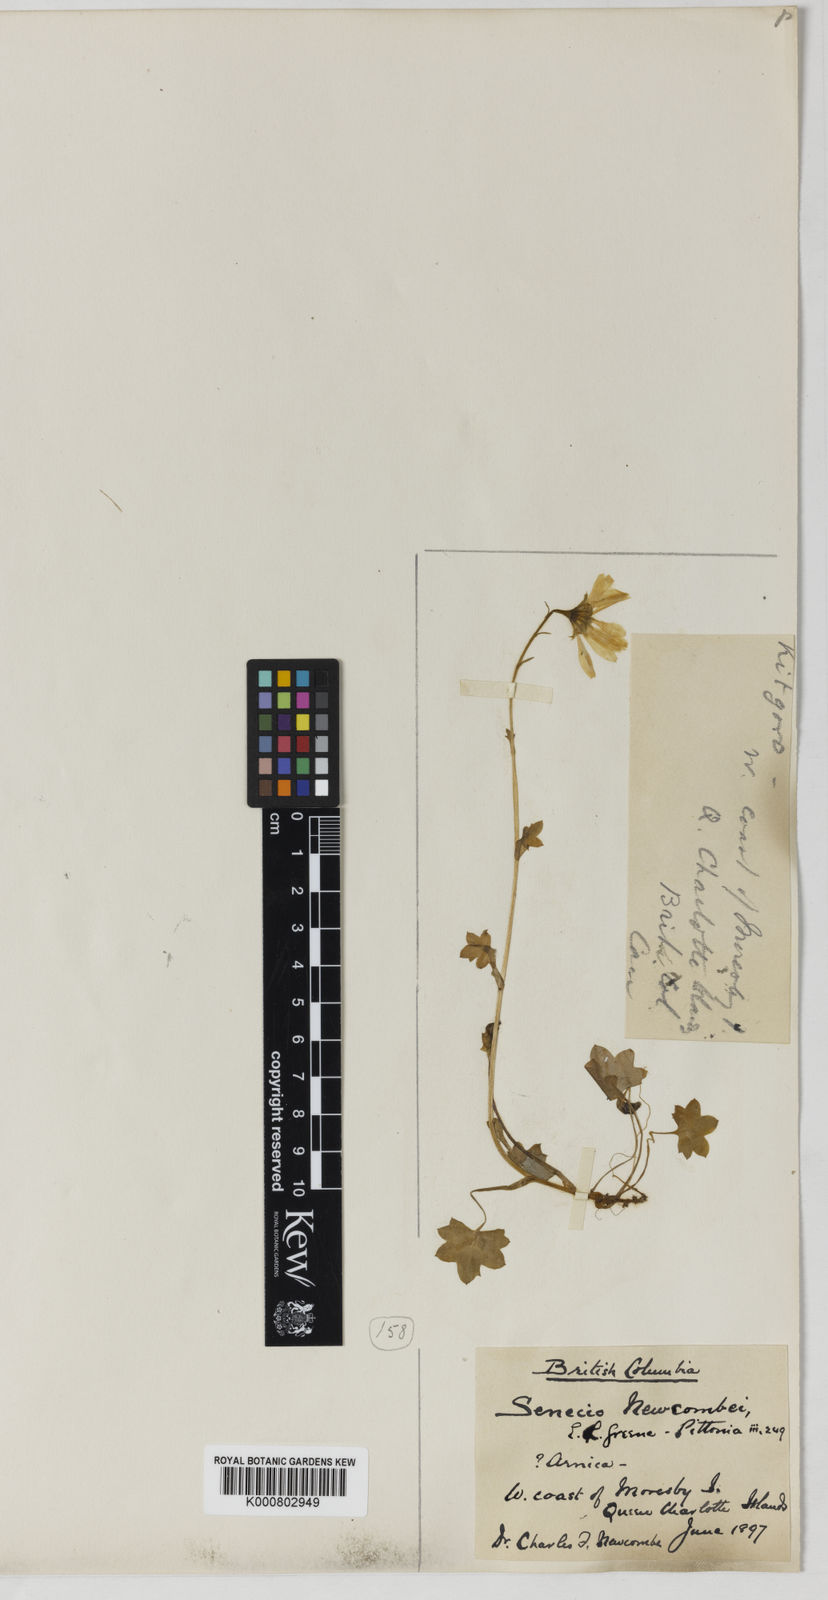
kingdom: Plantae
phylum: Tracheophyta
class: Magnoliopsida
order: Asterales
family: Asteraceae
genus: Tephroseris
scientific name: Tephroseris newcombei
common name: Newcombe's butterweed
